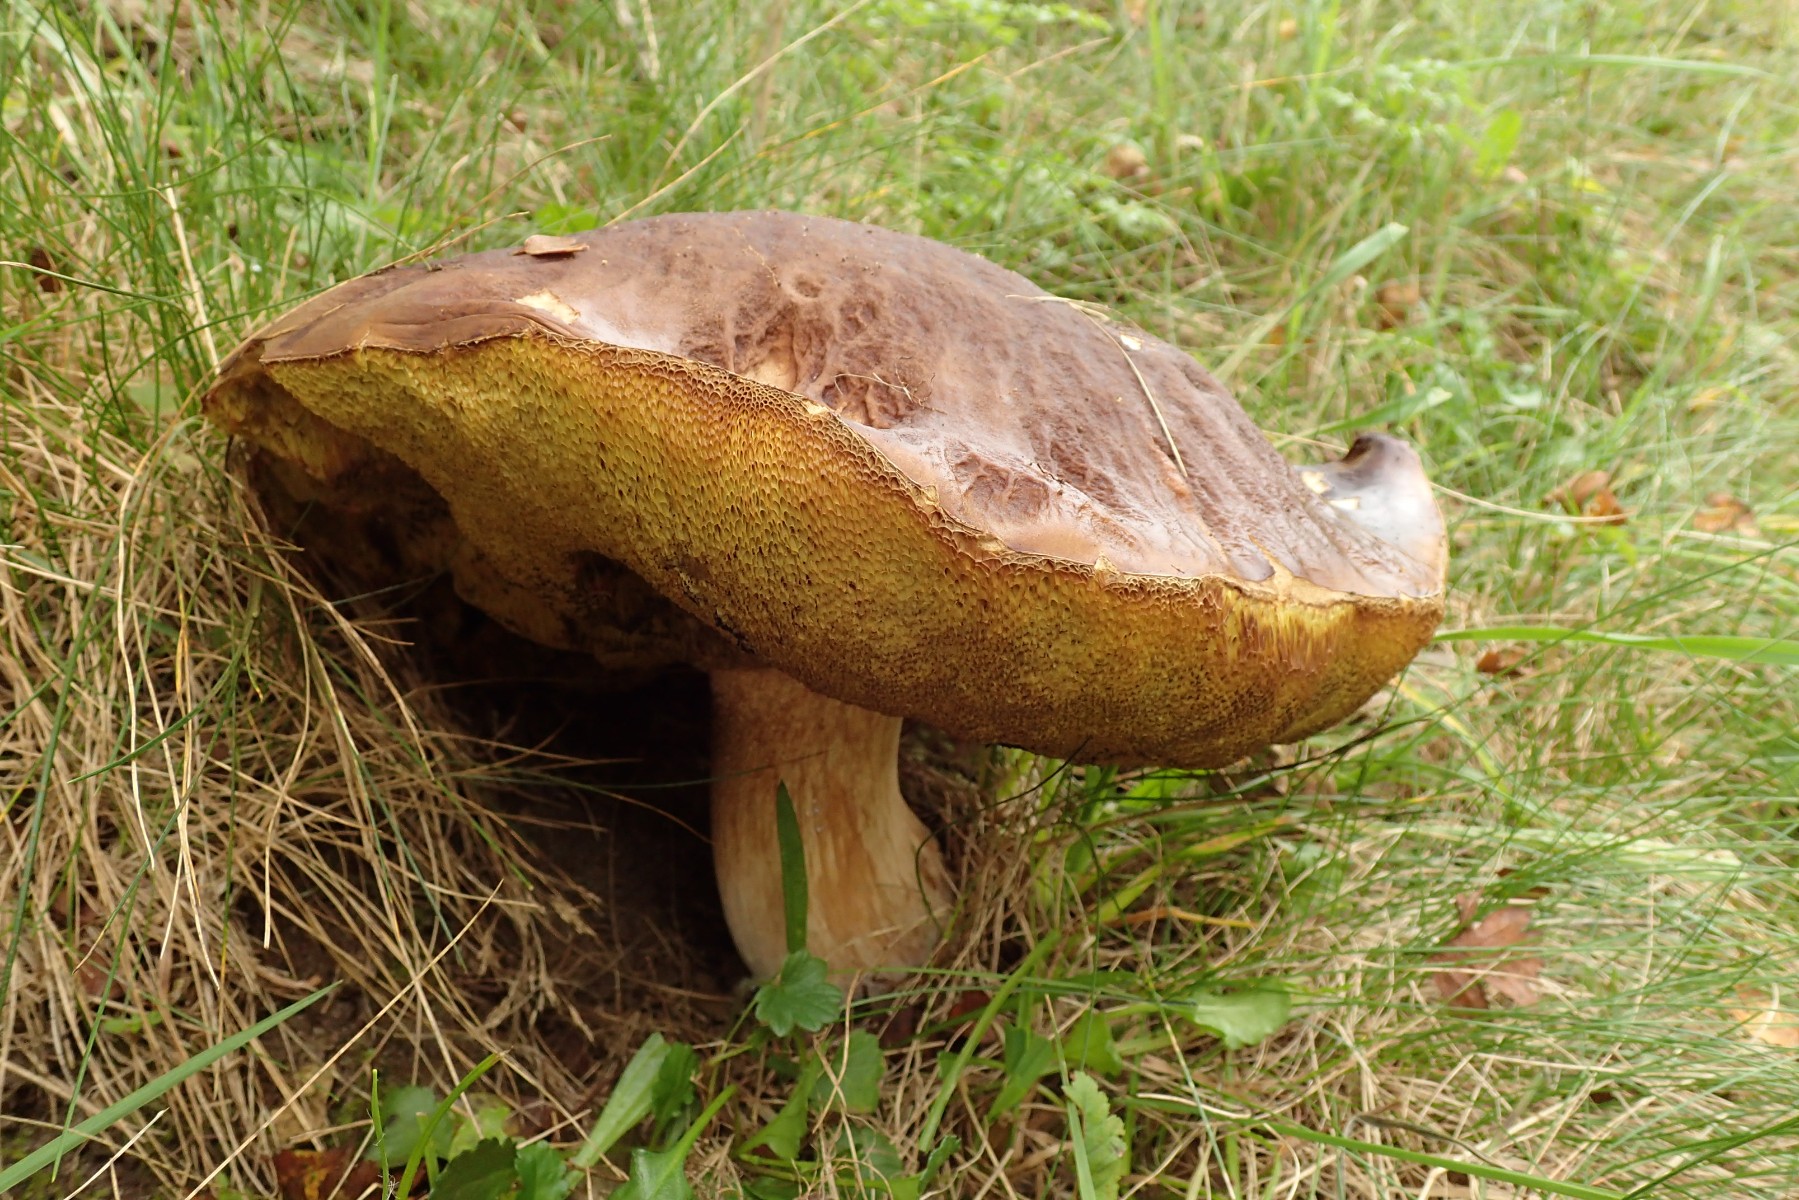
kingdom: Fungi
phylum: Basidiomycota
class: Agaricomycetes
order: Boletales
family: Boletaceae
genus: Boletus
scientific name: Boletus edulis
